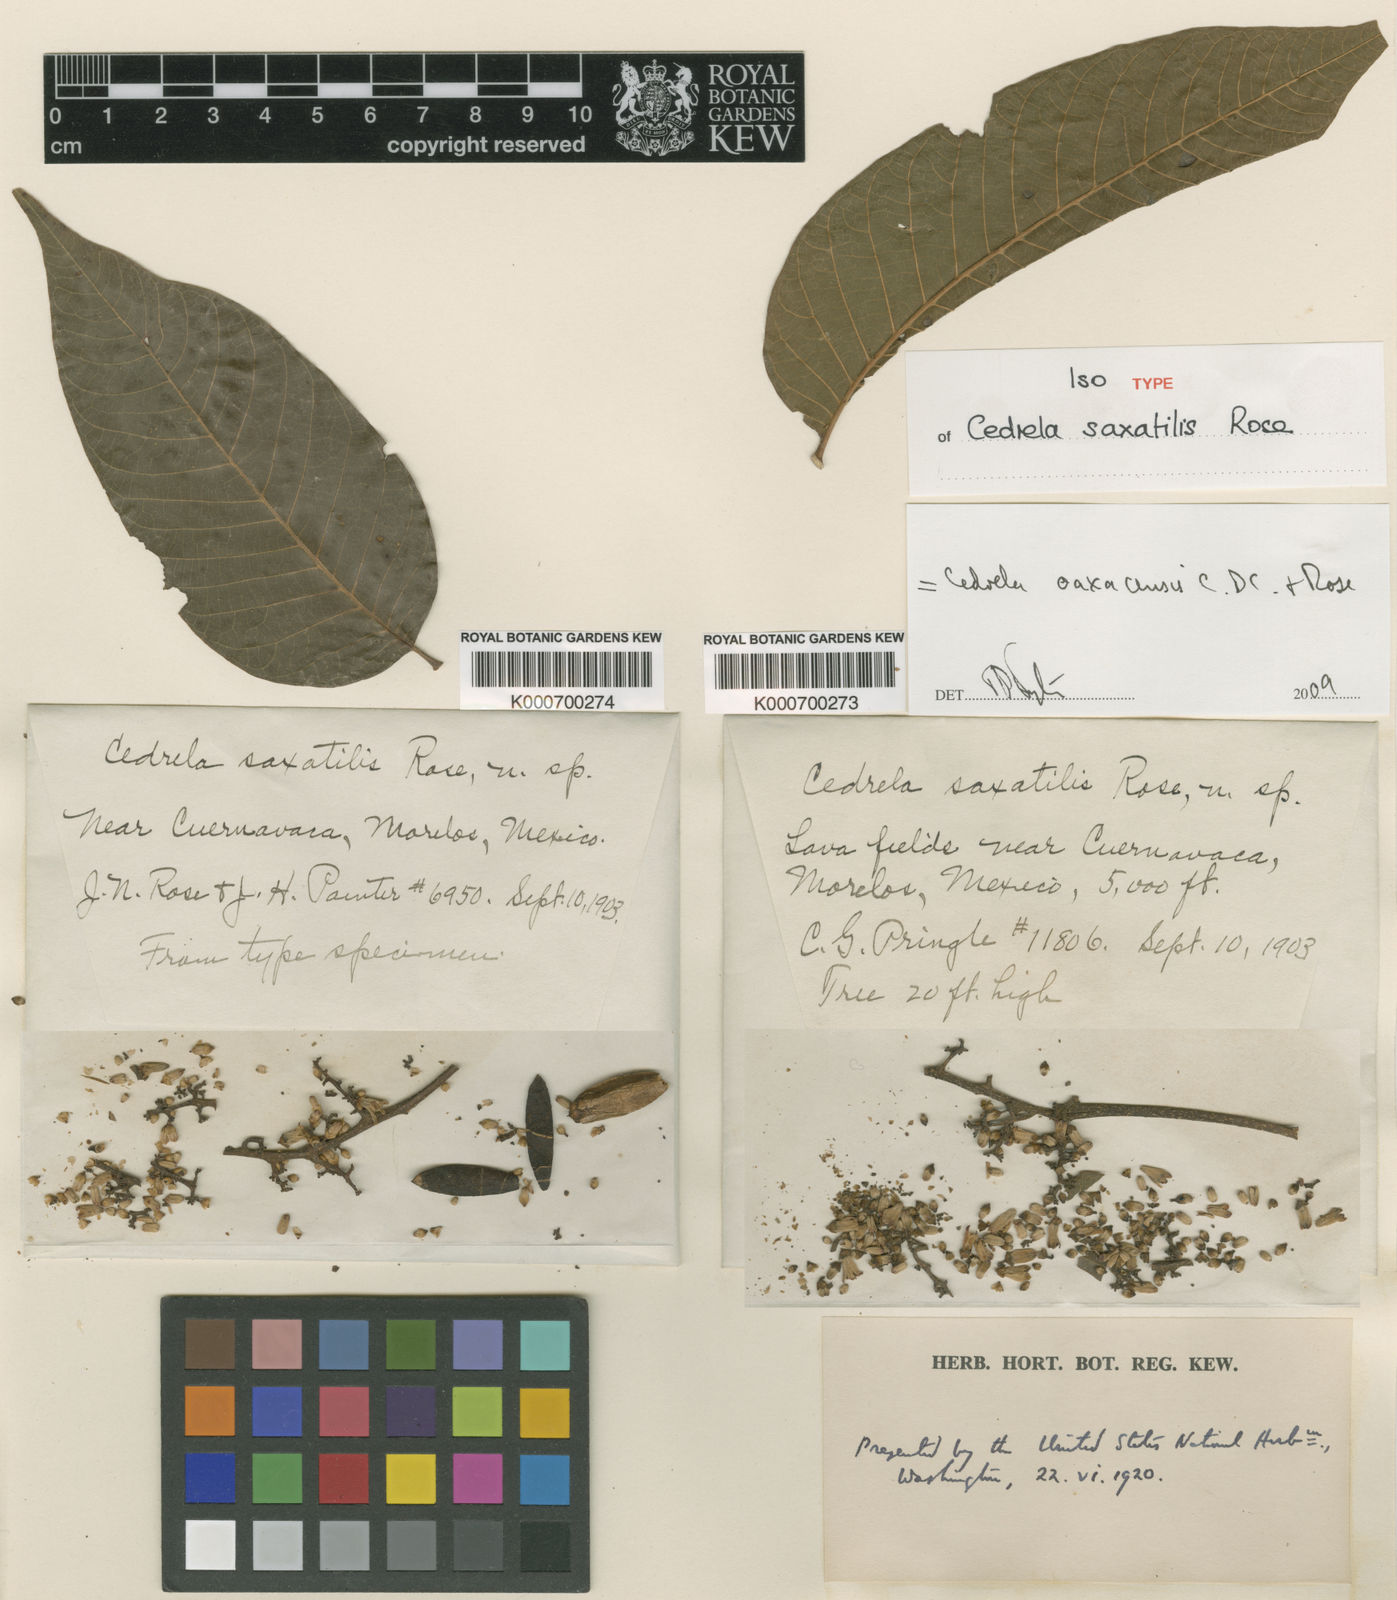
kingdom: Plantae
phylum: Tracheophyta
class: Magnoliopsida
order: Sapindales
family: Meliaceae
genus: Cedrela
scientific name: Cedrela oaxacensis
